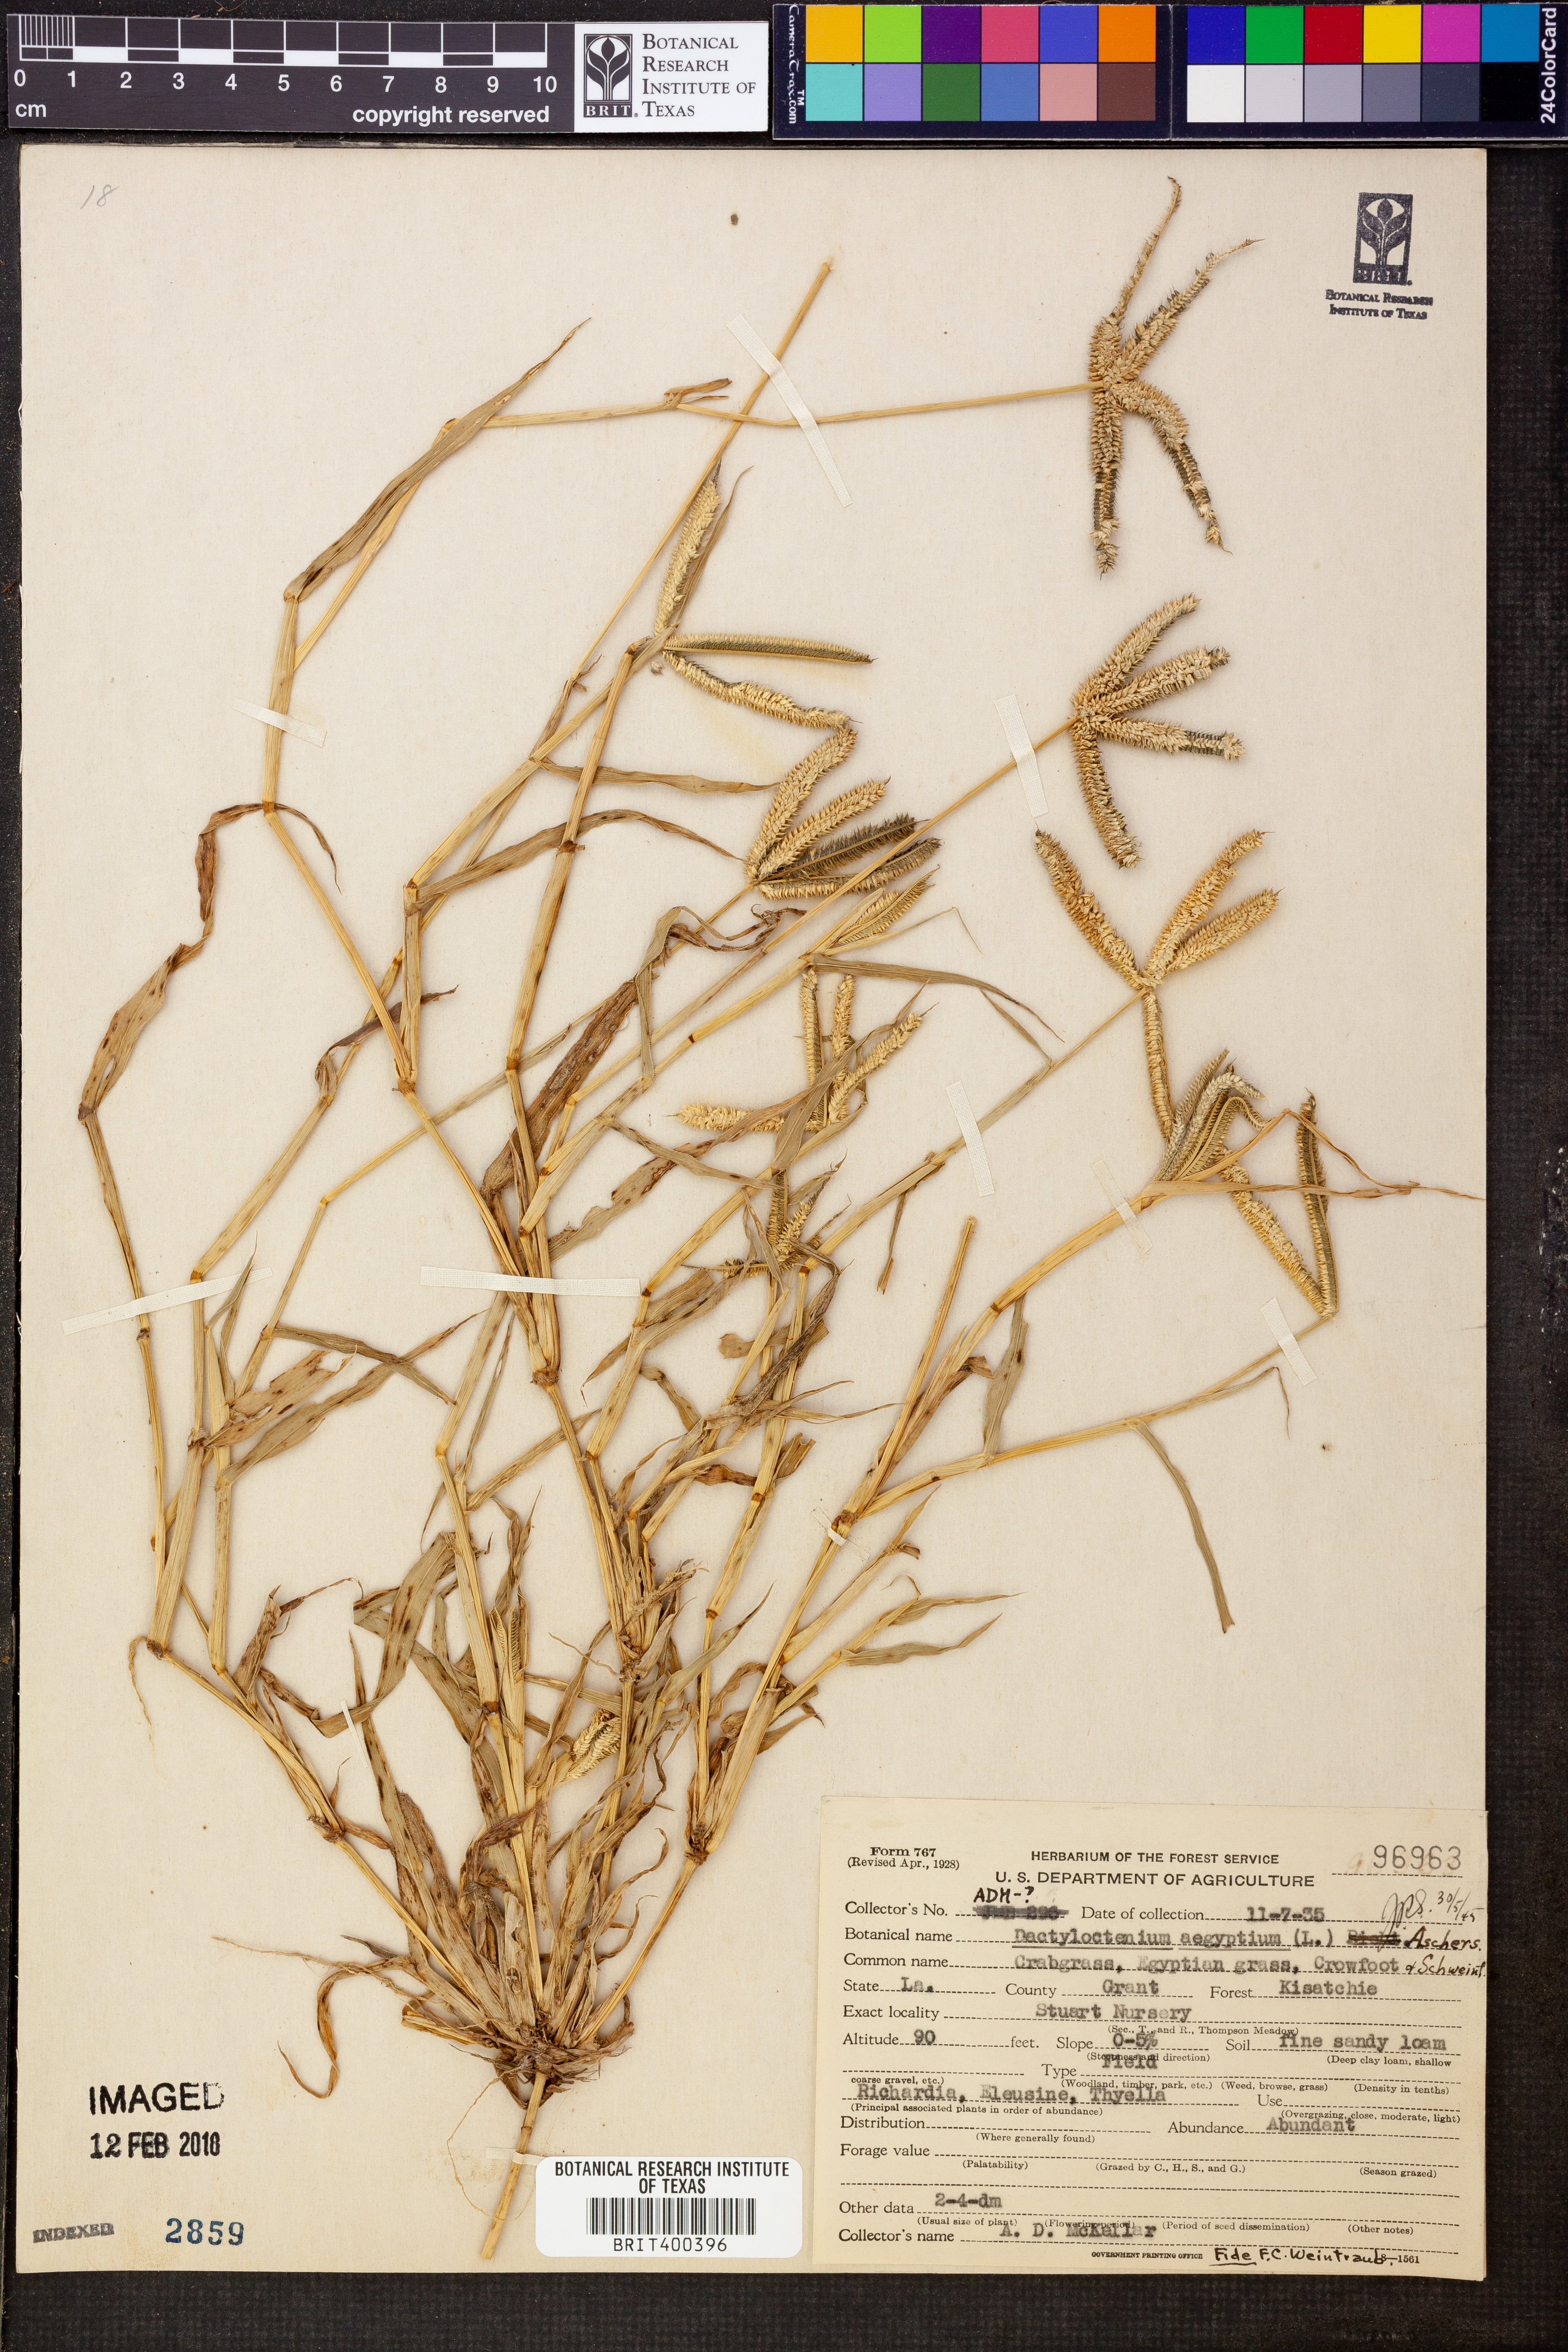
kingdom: Plantae
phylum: Tracheophyta
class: Liliopsida
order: Poales
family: Poaceae
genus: Dactyloctenium
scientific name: Dactyloctenium aegyptium
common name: Egyptian grass
